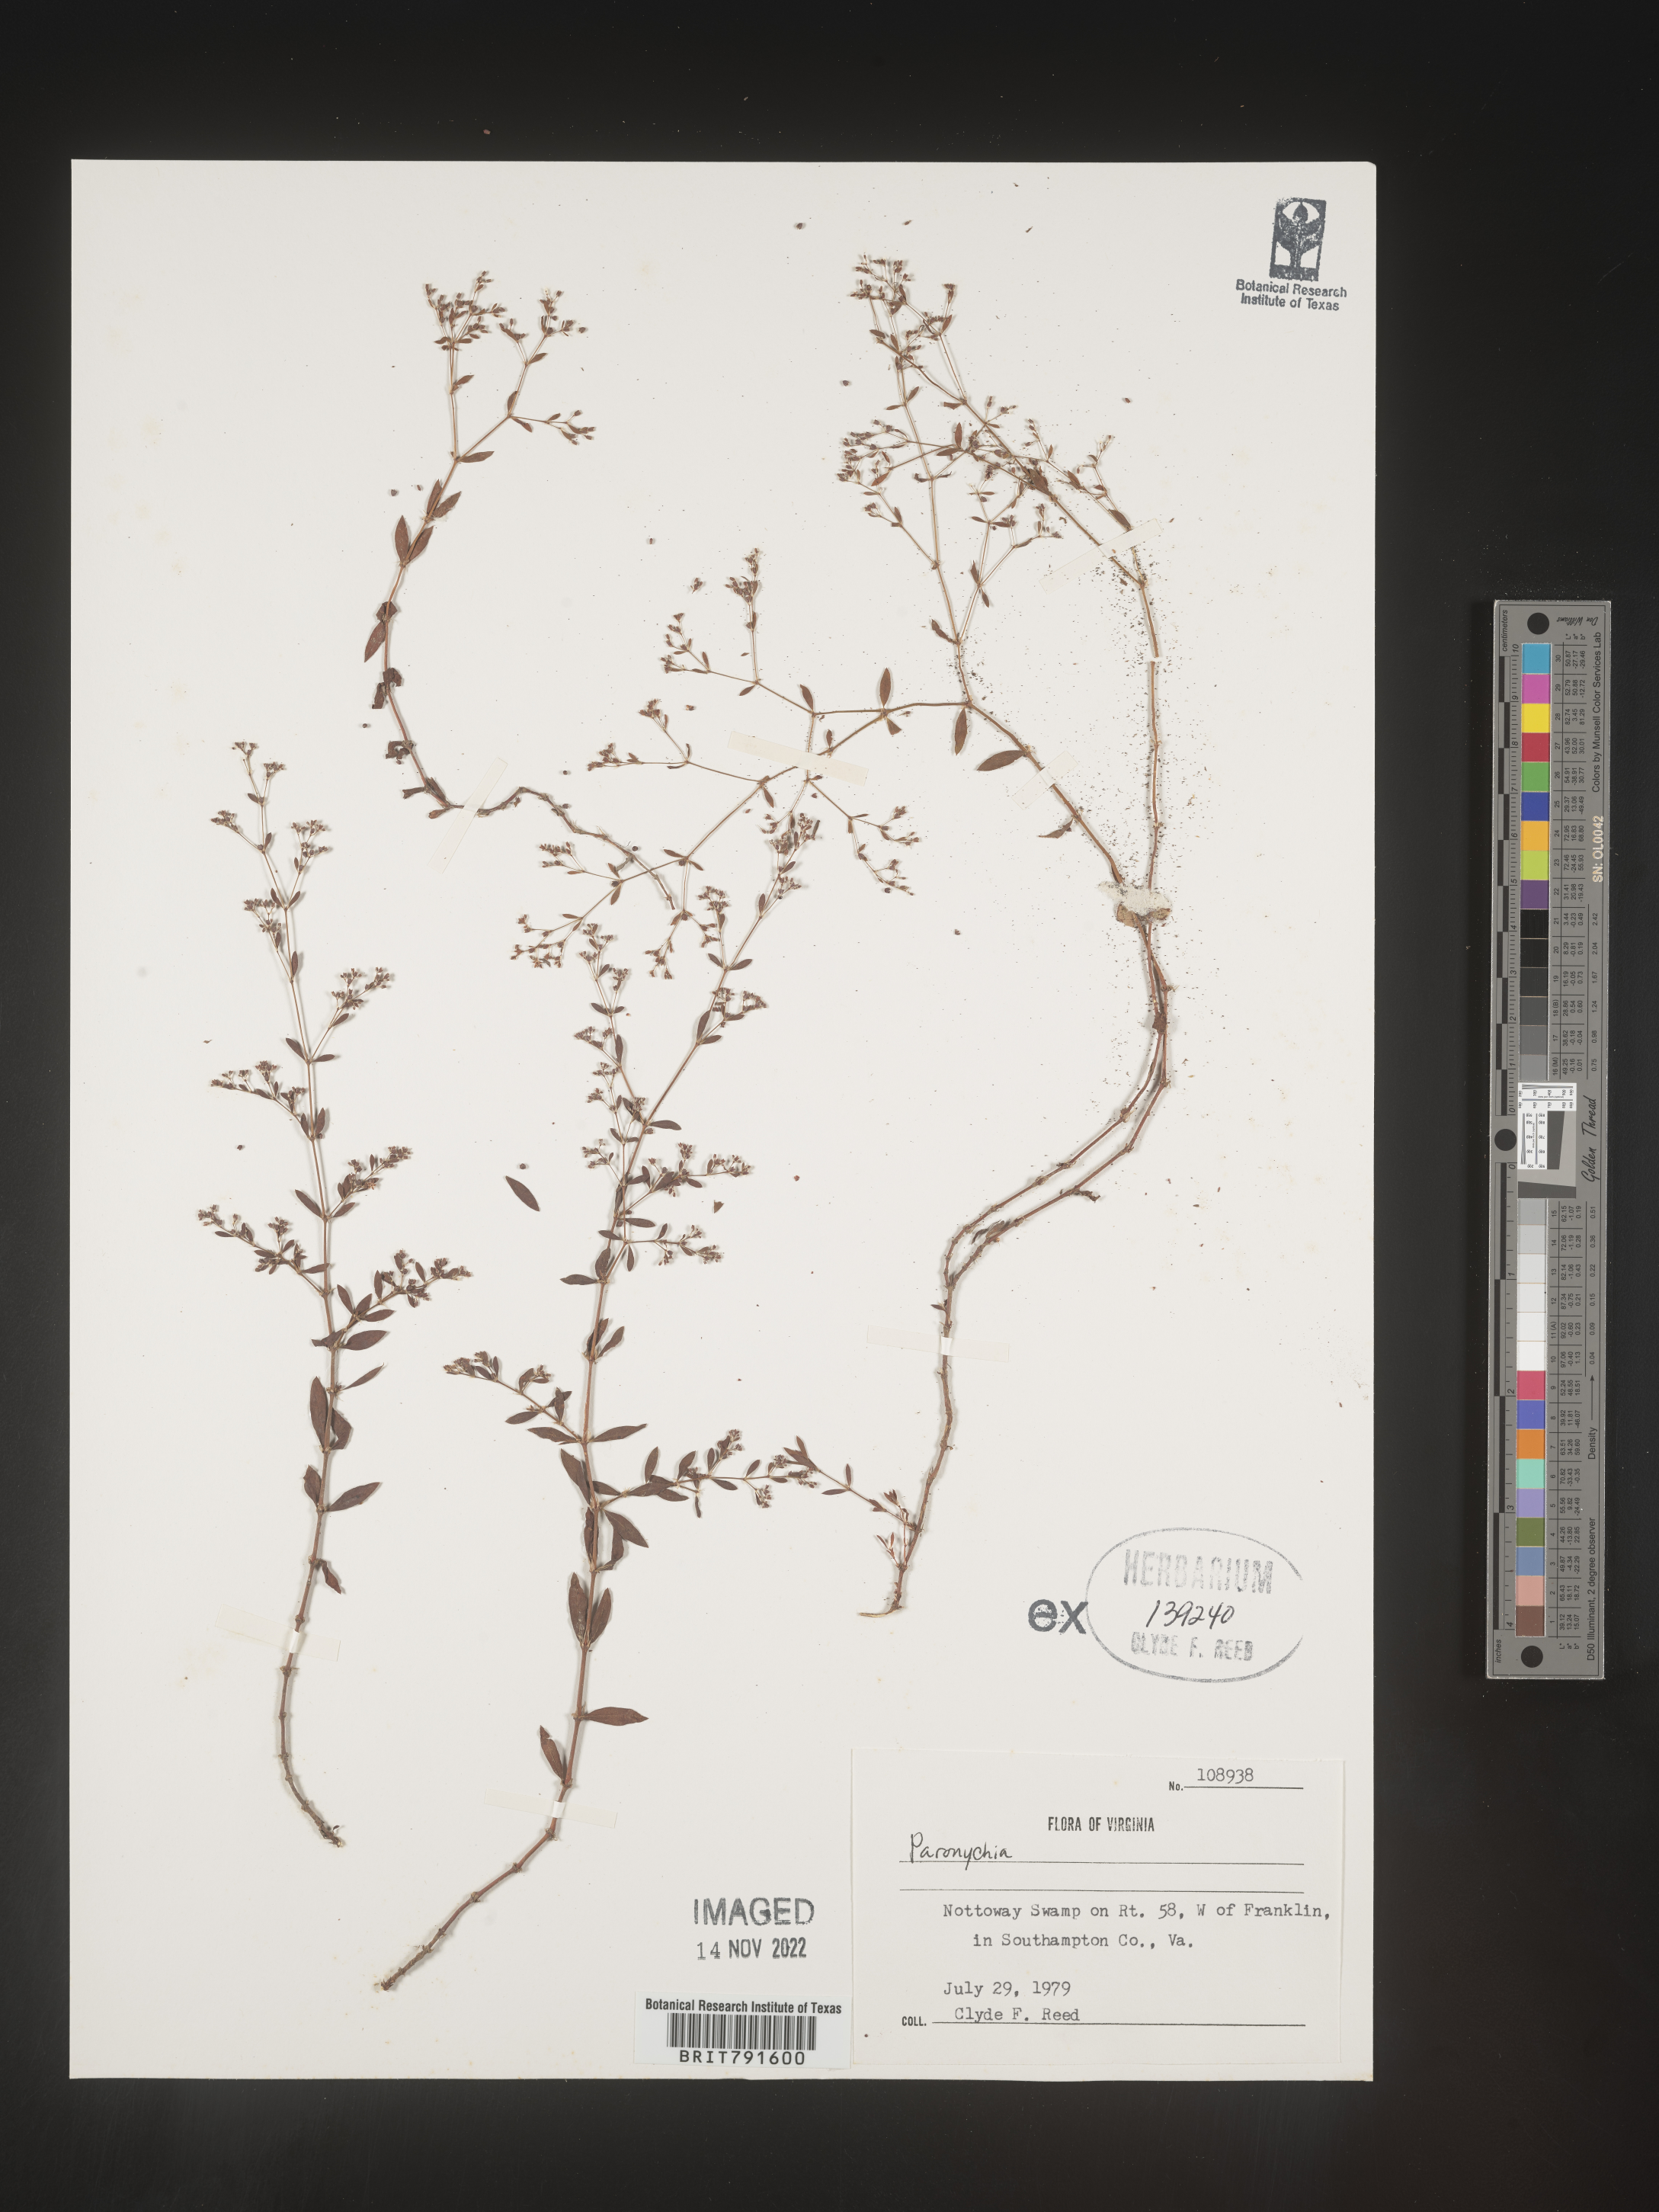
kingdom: Plantae
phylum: Tracheophyta
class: Magnoliopsida
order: Caryophyllales
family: Caryophyllaceae
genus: Paronychia
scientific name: Paronychia
